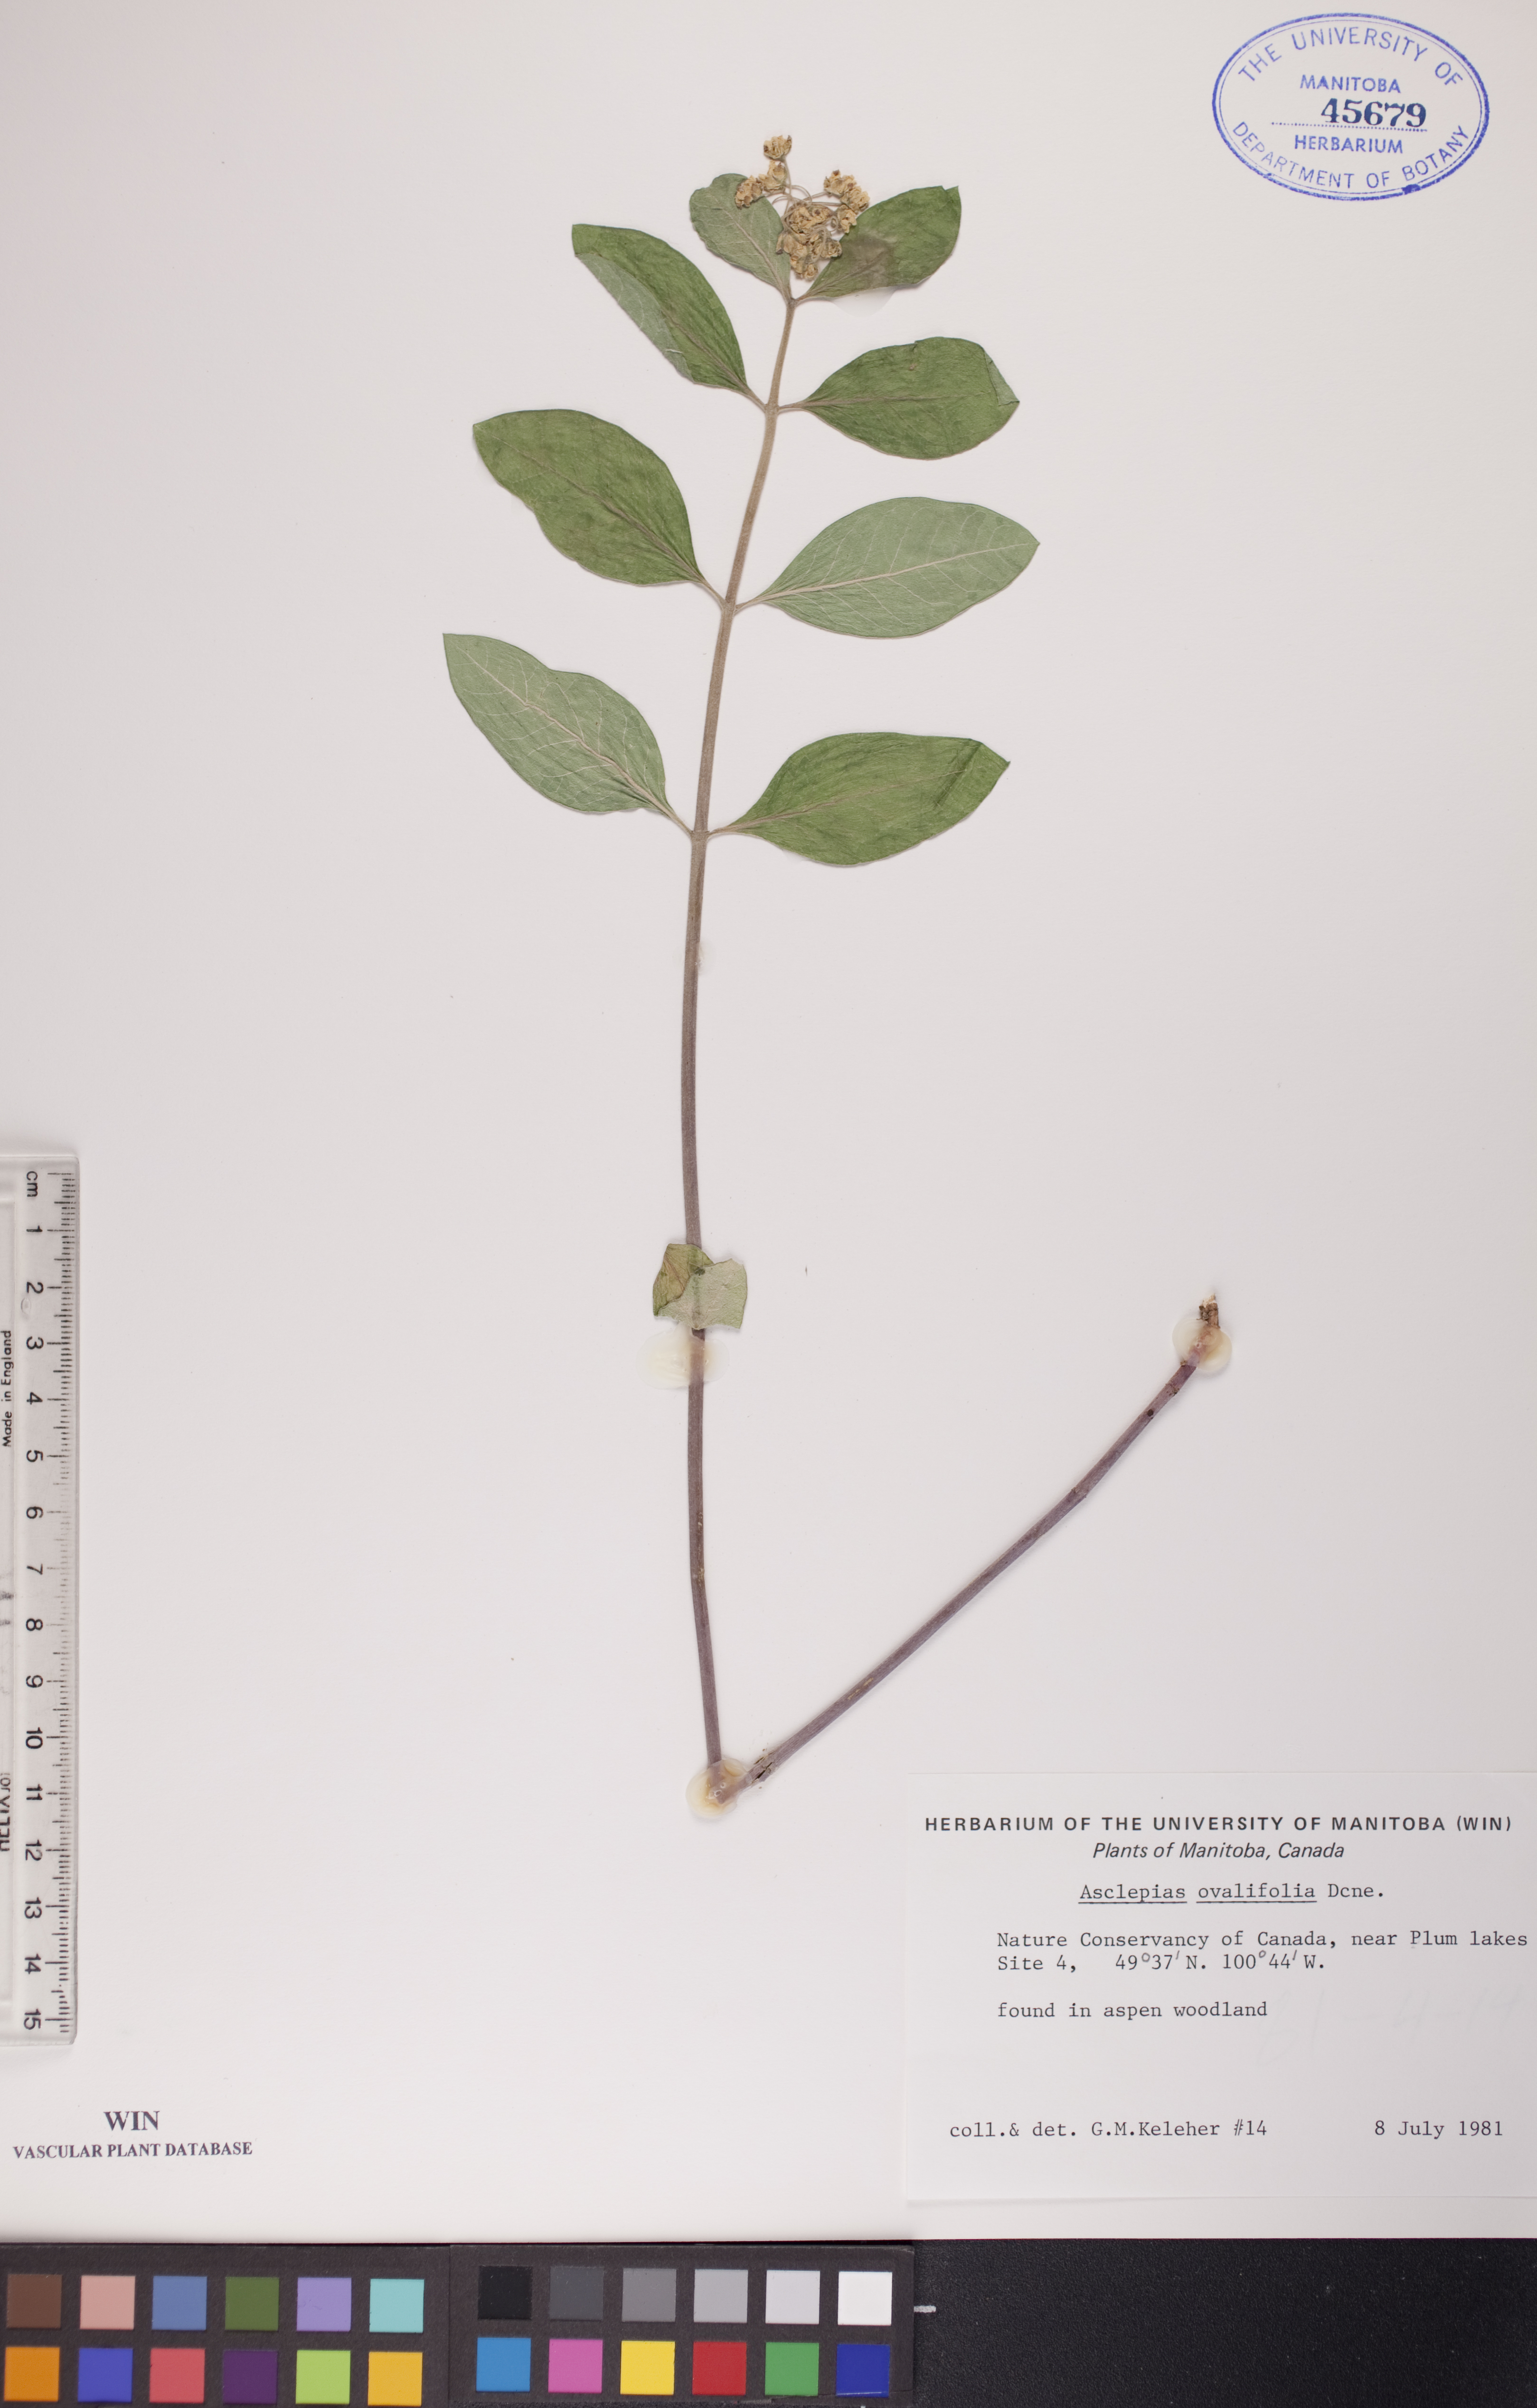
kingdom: Plantae
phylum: Tracheophyta
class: Magnoliopsida
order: Gentianales
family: Apocynaceae
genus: Asclepias
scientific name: Asclepias ovalifolia
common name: Dwarf milkweed
